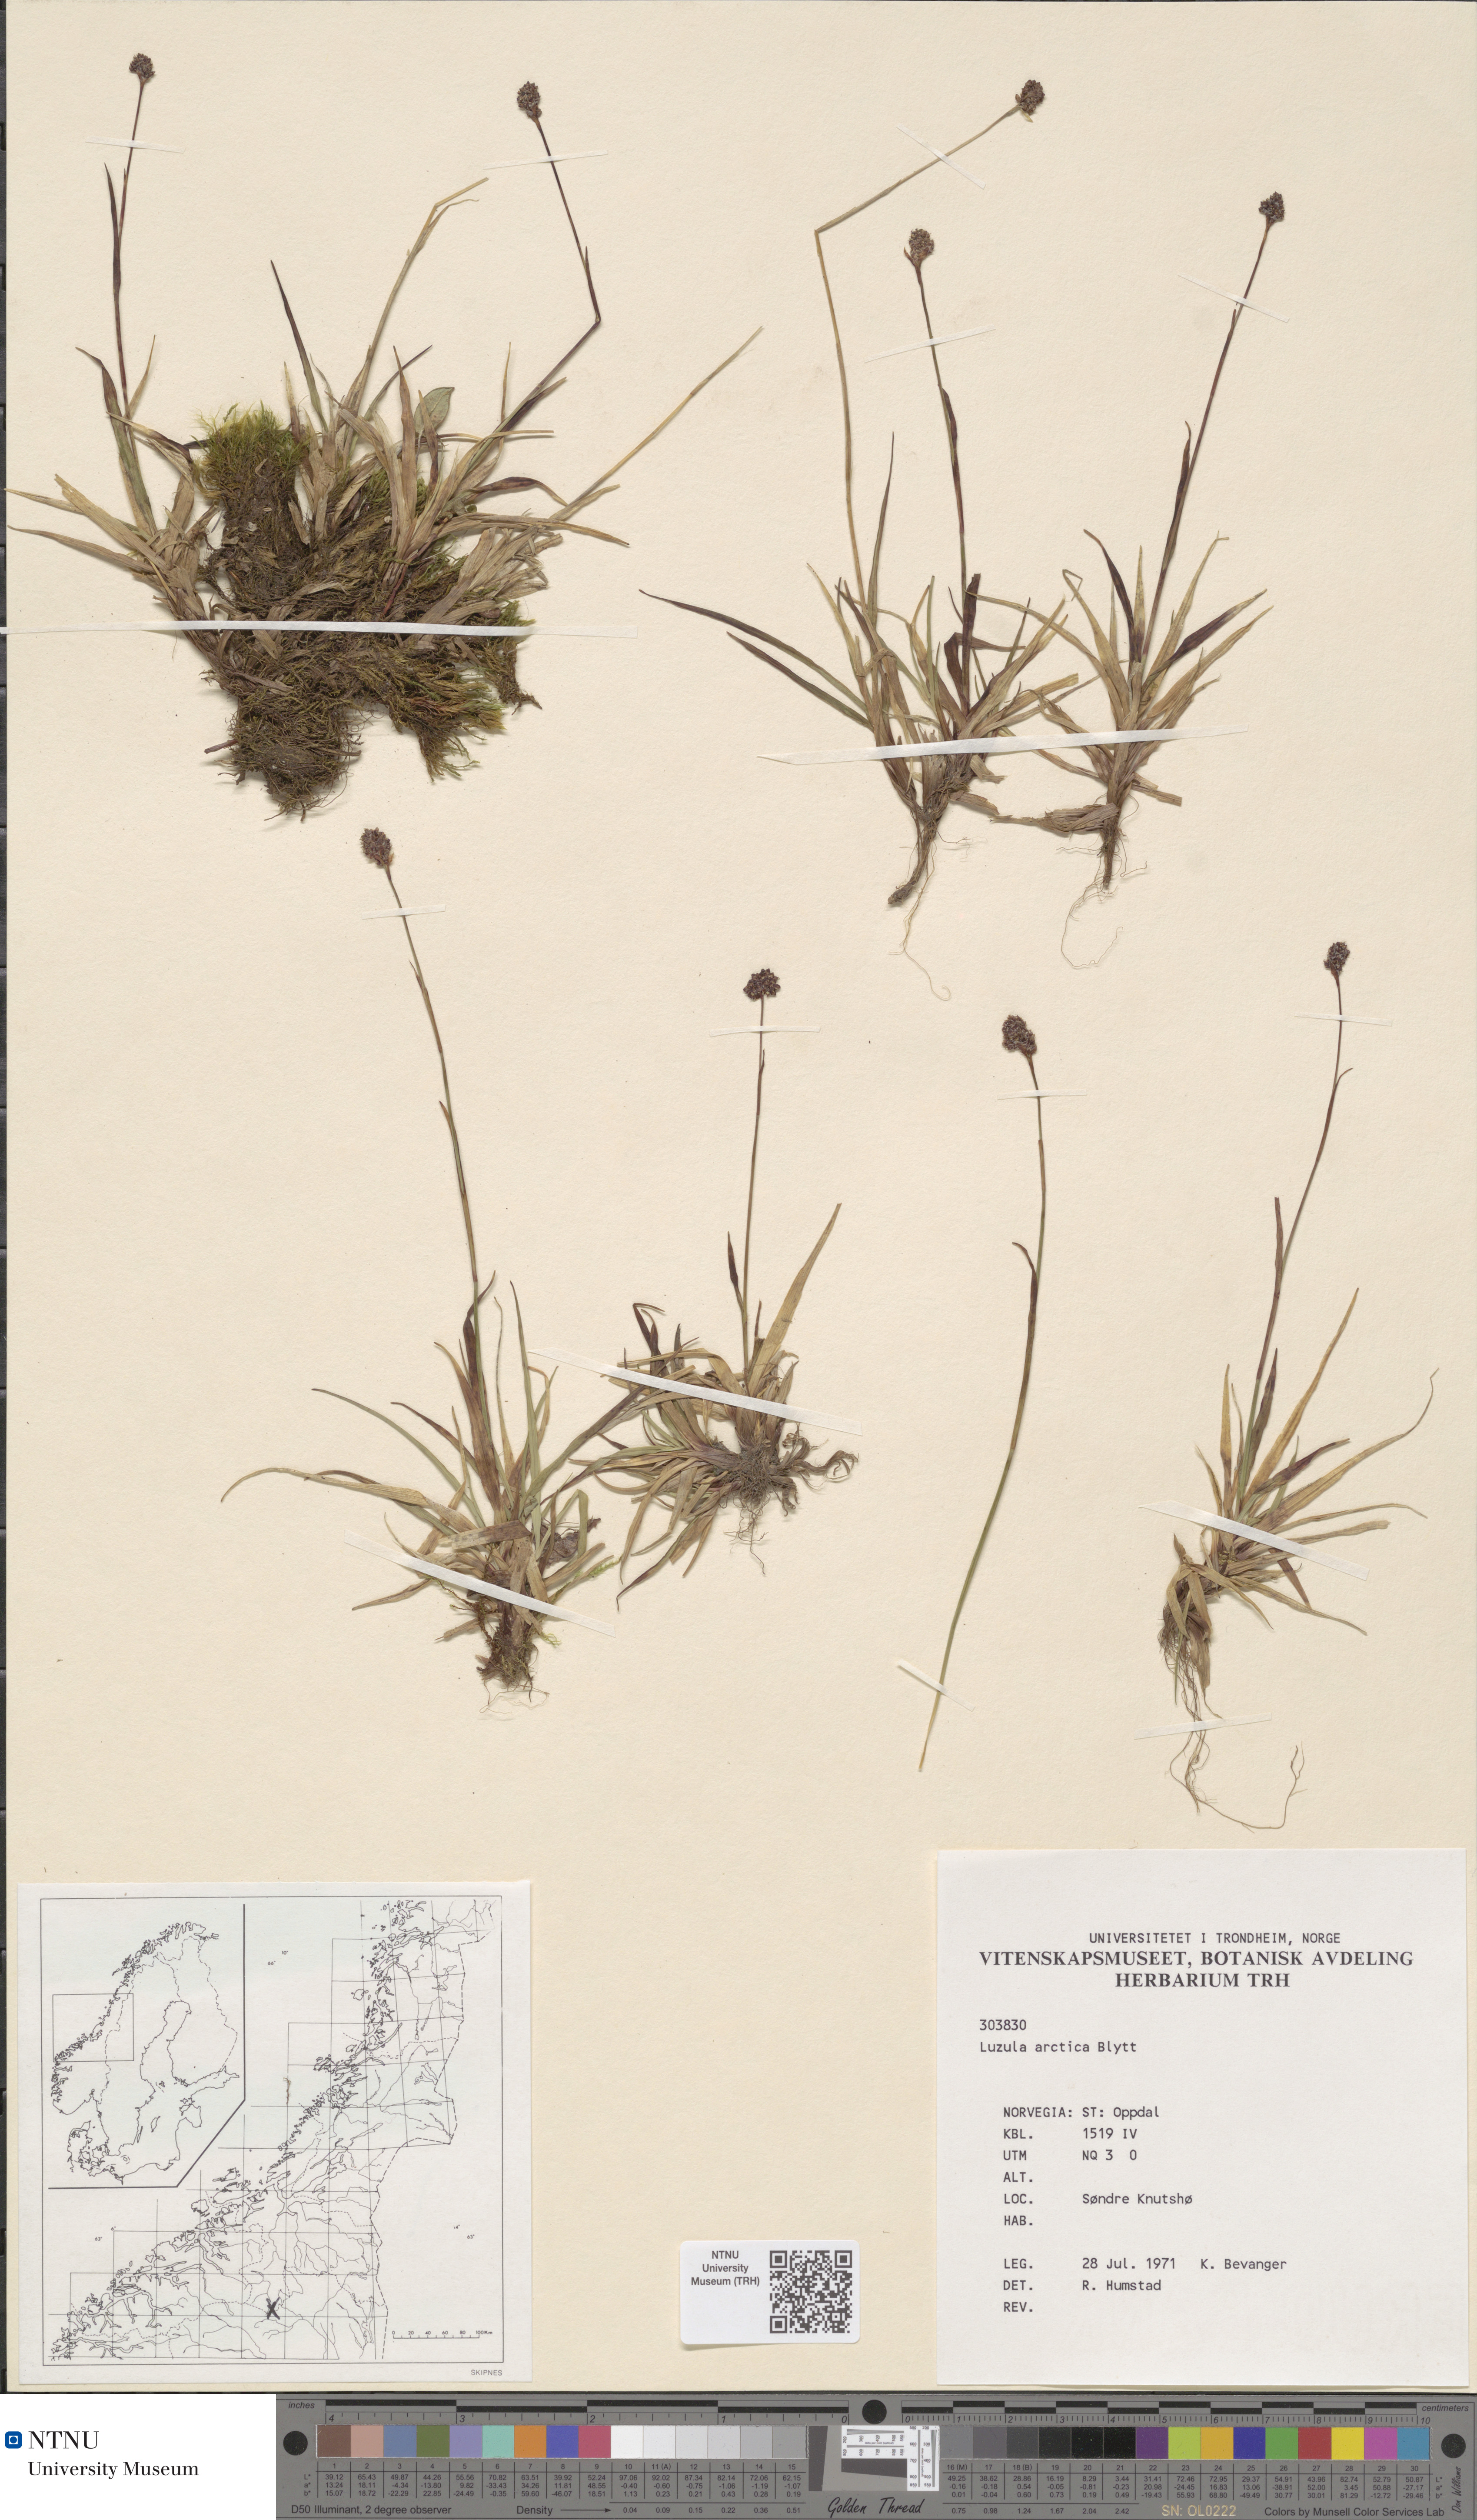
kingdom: Plantae
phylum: Tracheophyta
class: Liliopsida
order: Poales
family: Juncaceae
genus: Luzula
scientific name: Luzula nivalis
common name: Arctic woodrush
